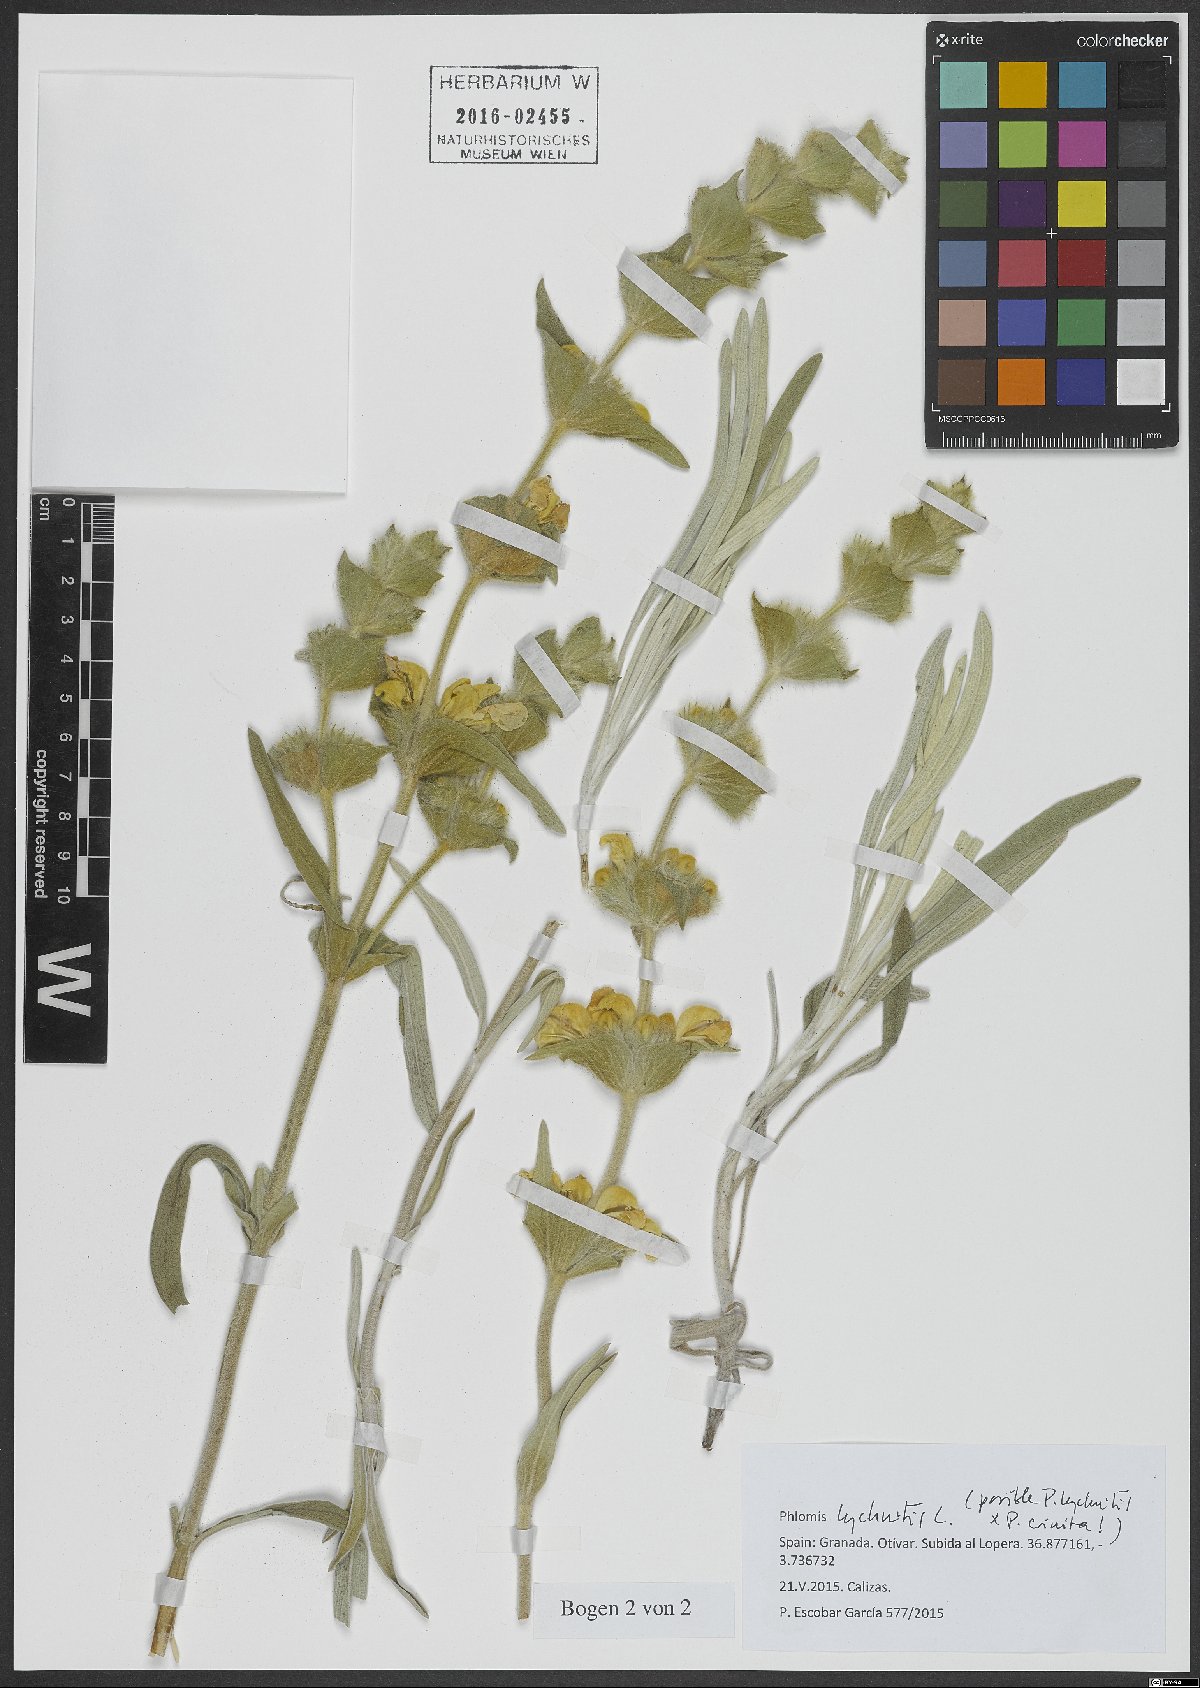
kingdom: Plantae
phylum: Tracheophyta
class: Magnoliopsida
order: Lamiales
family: Lamiaceae
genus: Phlomis
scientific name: Phlomis lychnitis
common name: Lampwickplant
